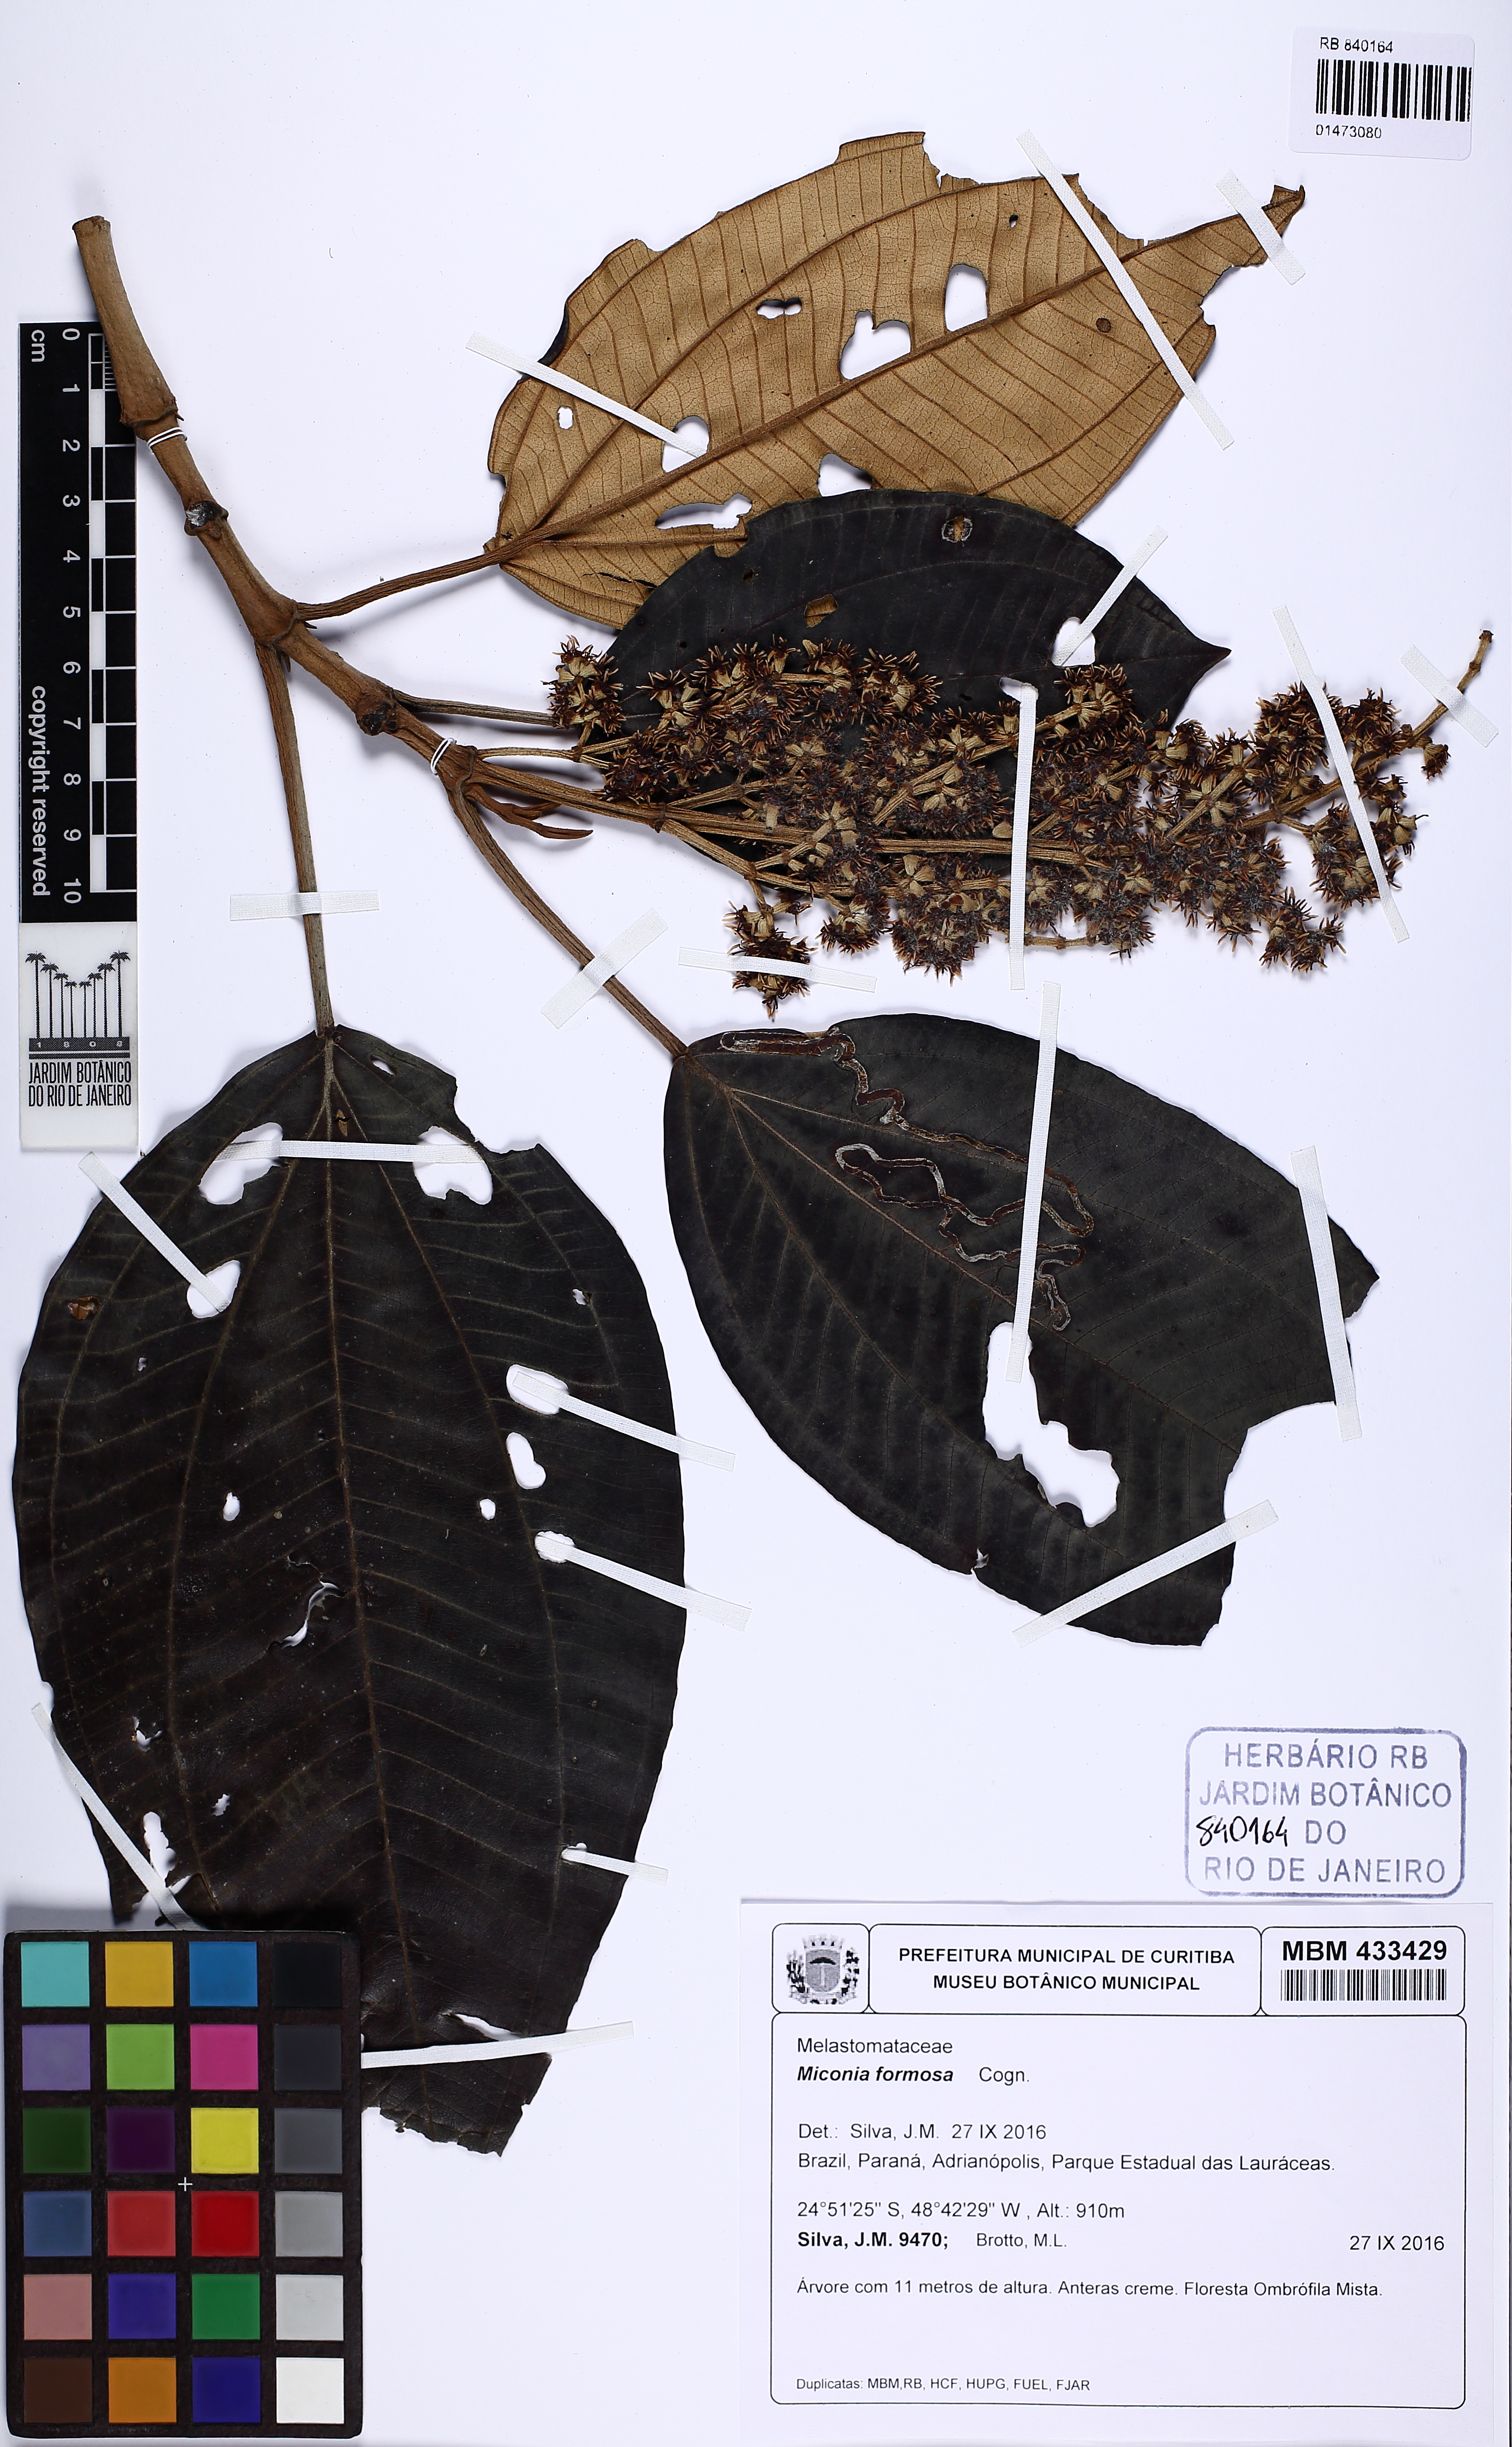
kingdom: Plantae
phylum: Tracheophyta
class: Magnoliopsida
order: Myrtales
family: Melastomataceae
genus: Miconia
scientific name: Miconia formosa
